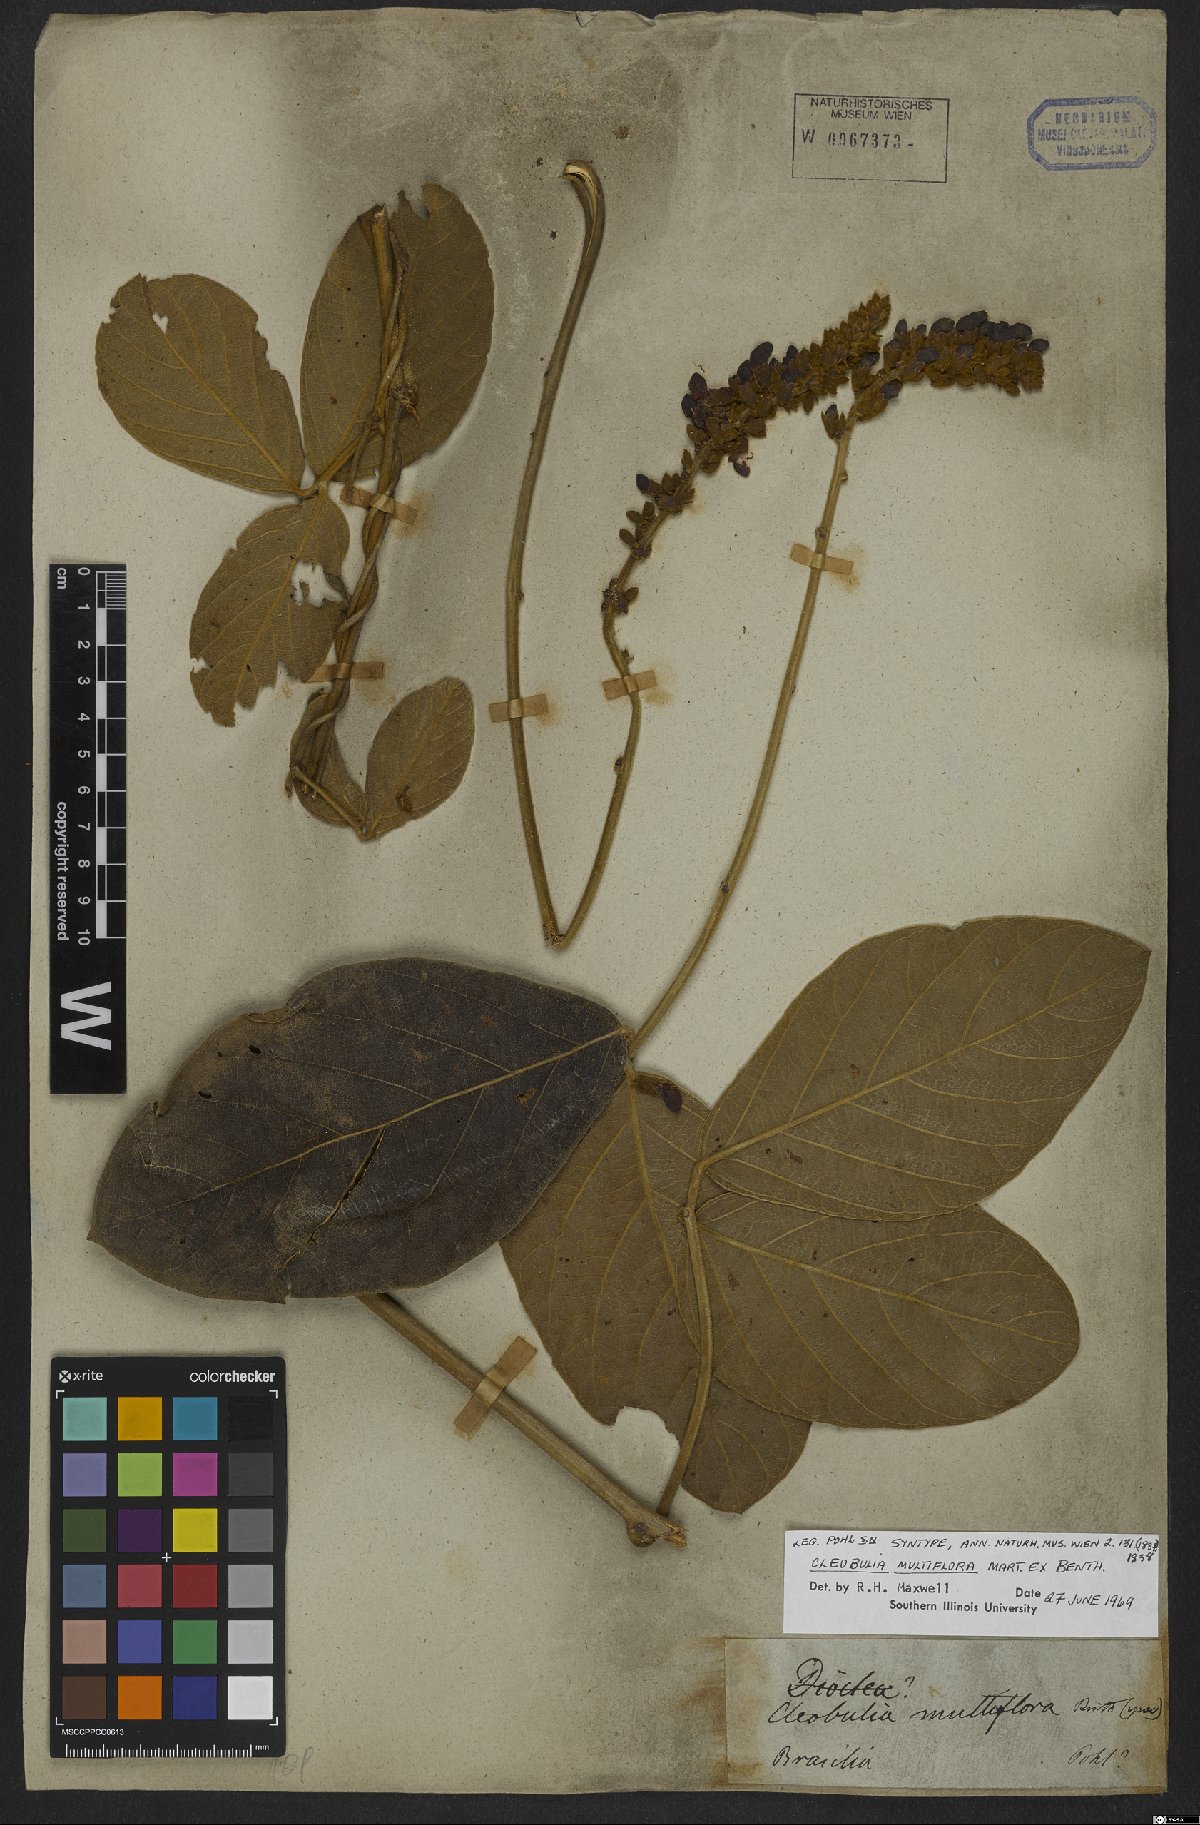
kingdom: Plantae
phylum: Tracheophyta
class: Magnoliopsida
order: Fabales
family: Fabaceae
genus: Cleobulia
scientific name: Cleobulia coccinea
